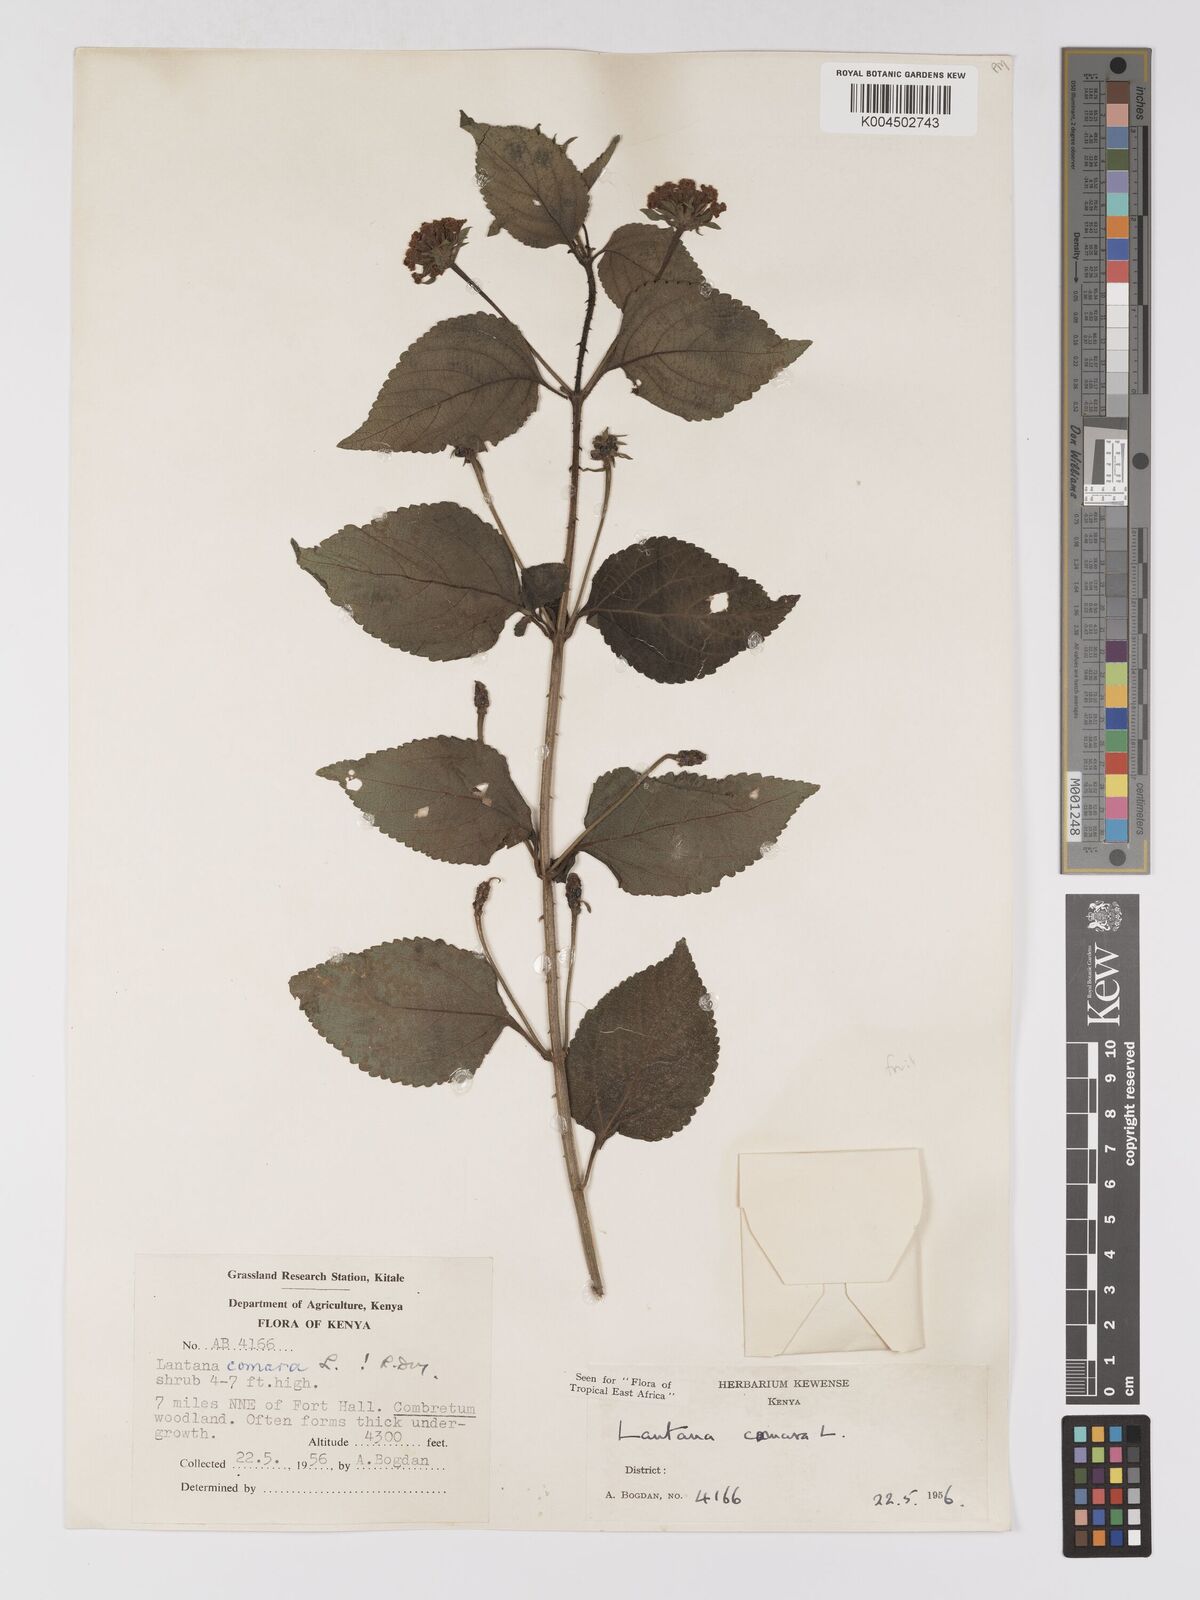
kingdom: Plantae
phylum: Tracheophyta
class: Magnoliopsida
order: Lamiales
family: Verbenaceae
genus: Lantana
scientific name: Lantana camara
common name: Lantana
